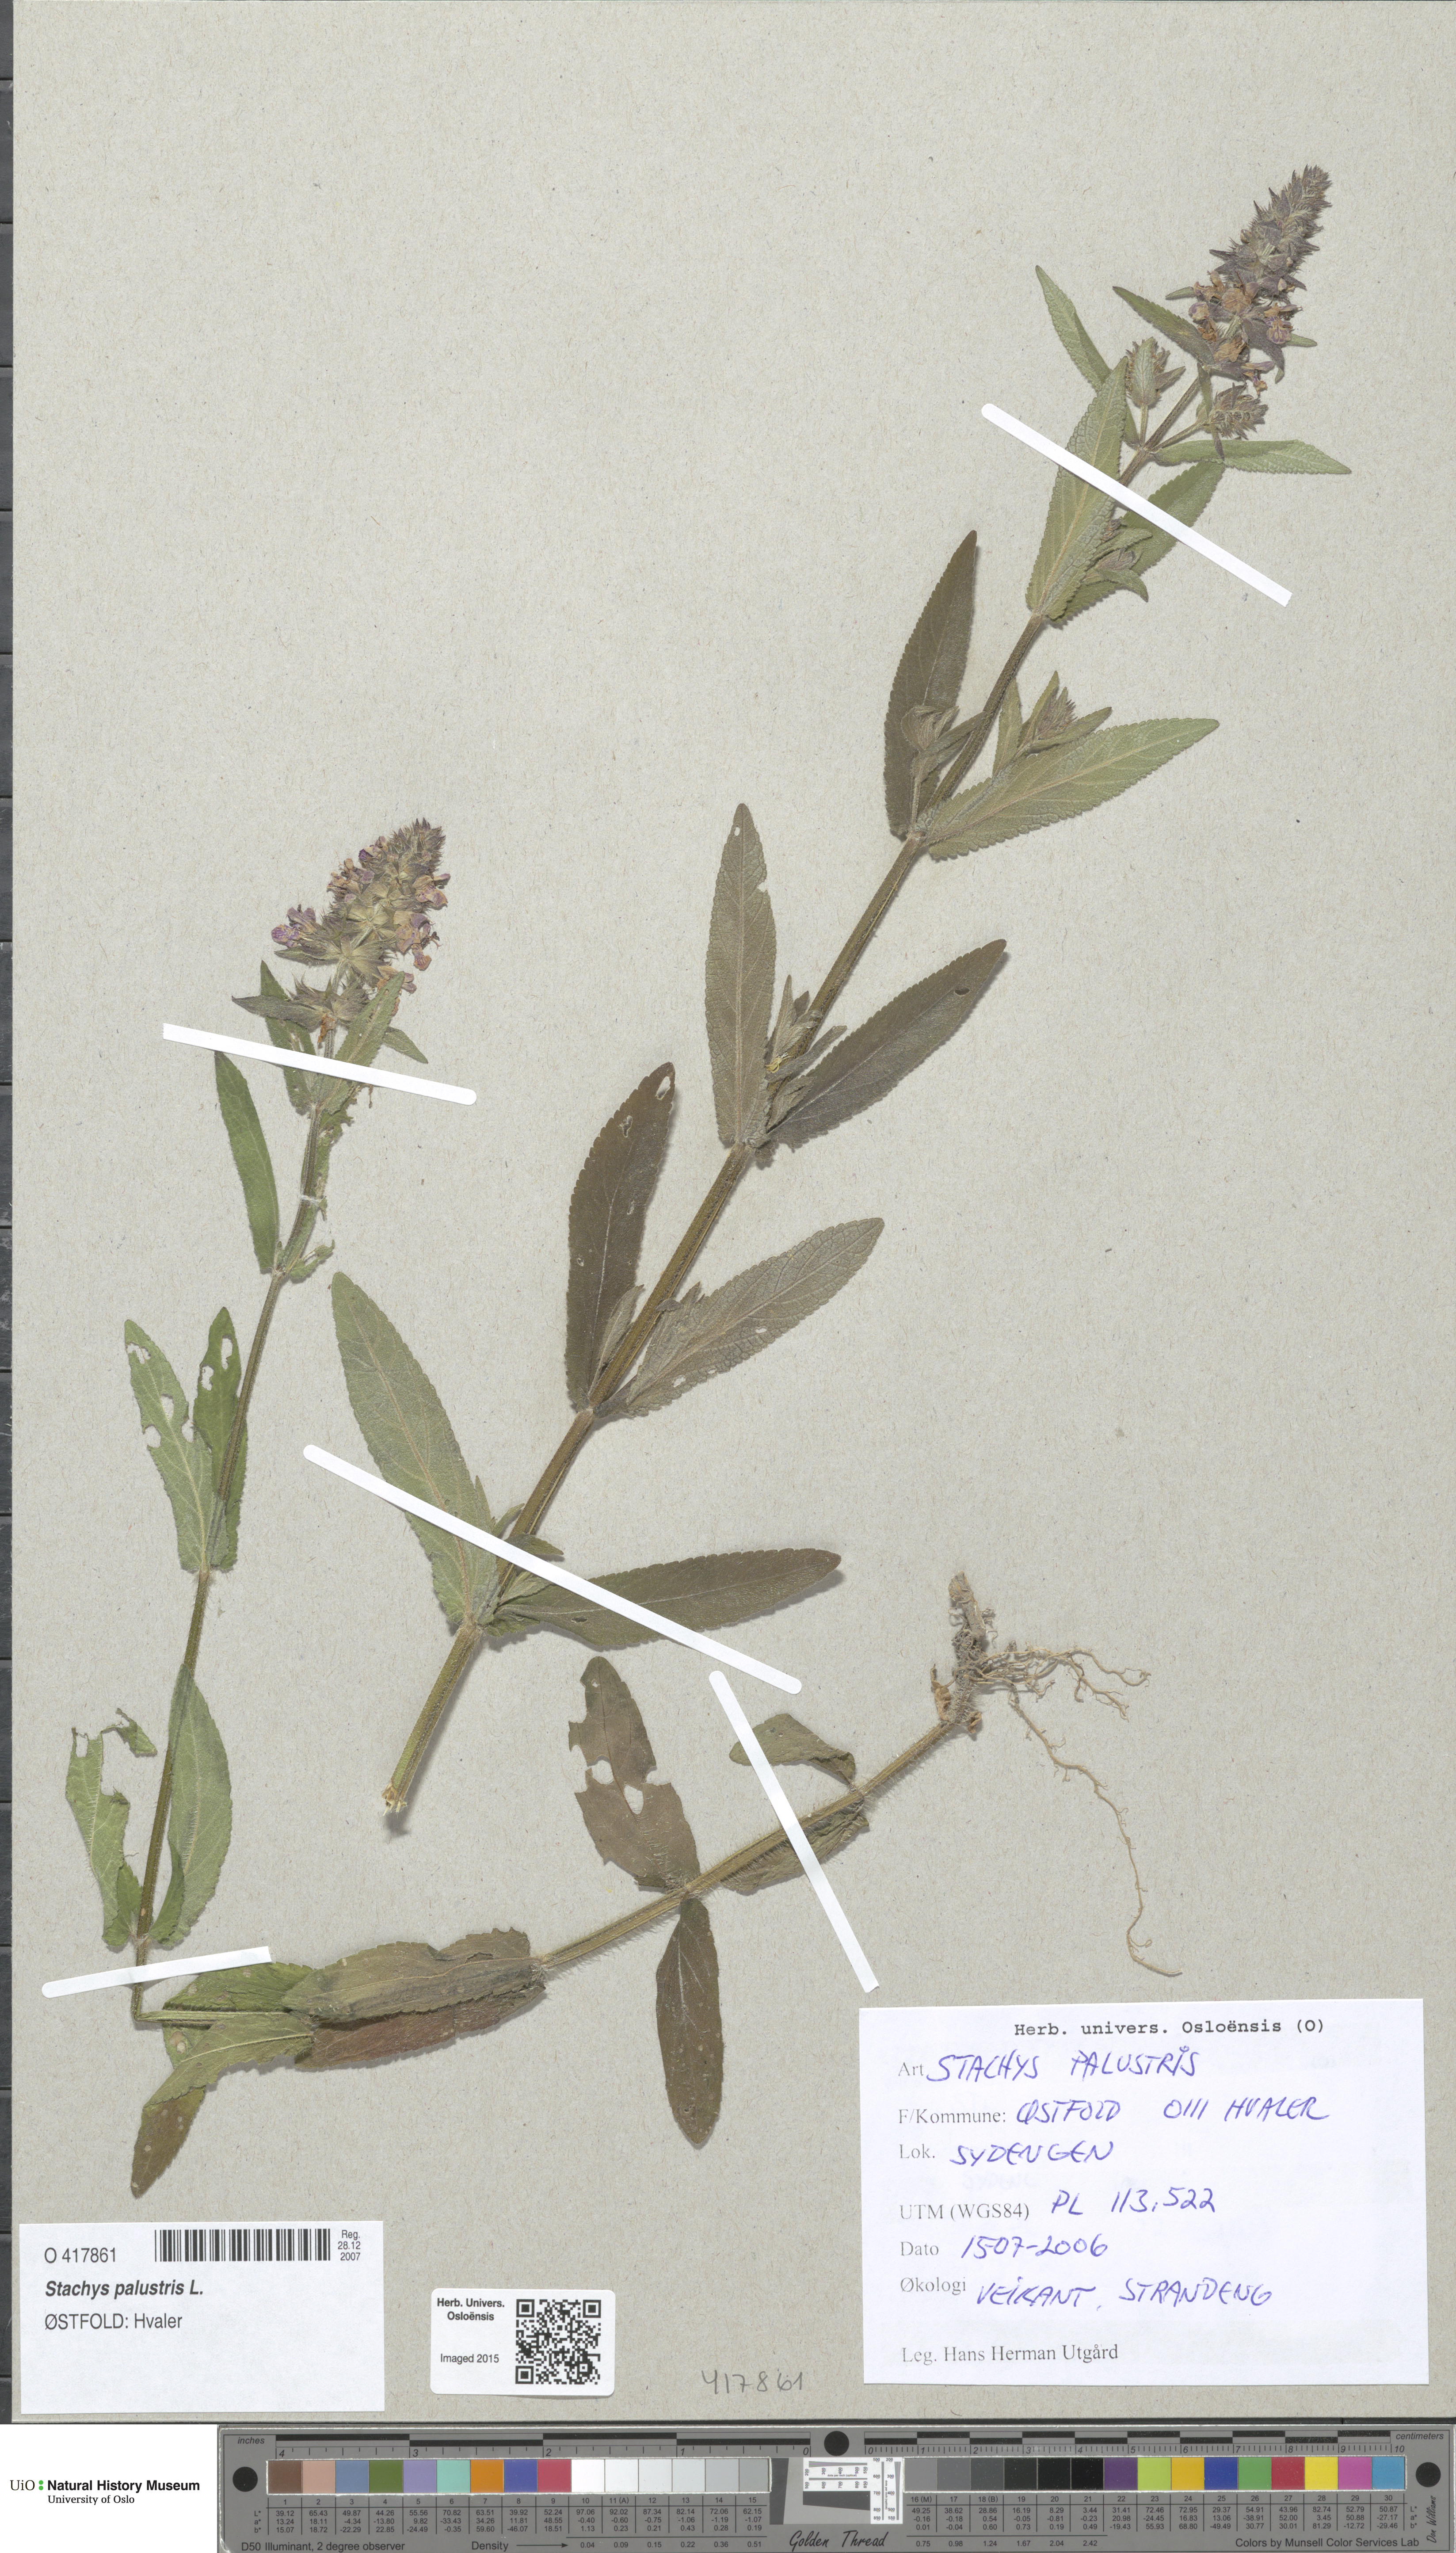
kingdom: Plantae
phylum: Tracheophyta
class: Magnoliopsida
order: Lamiales
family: Lamiaceae
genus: Stachys
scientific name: Stachys palustris
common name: Marsh woundwort
